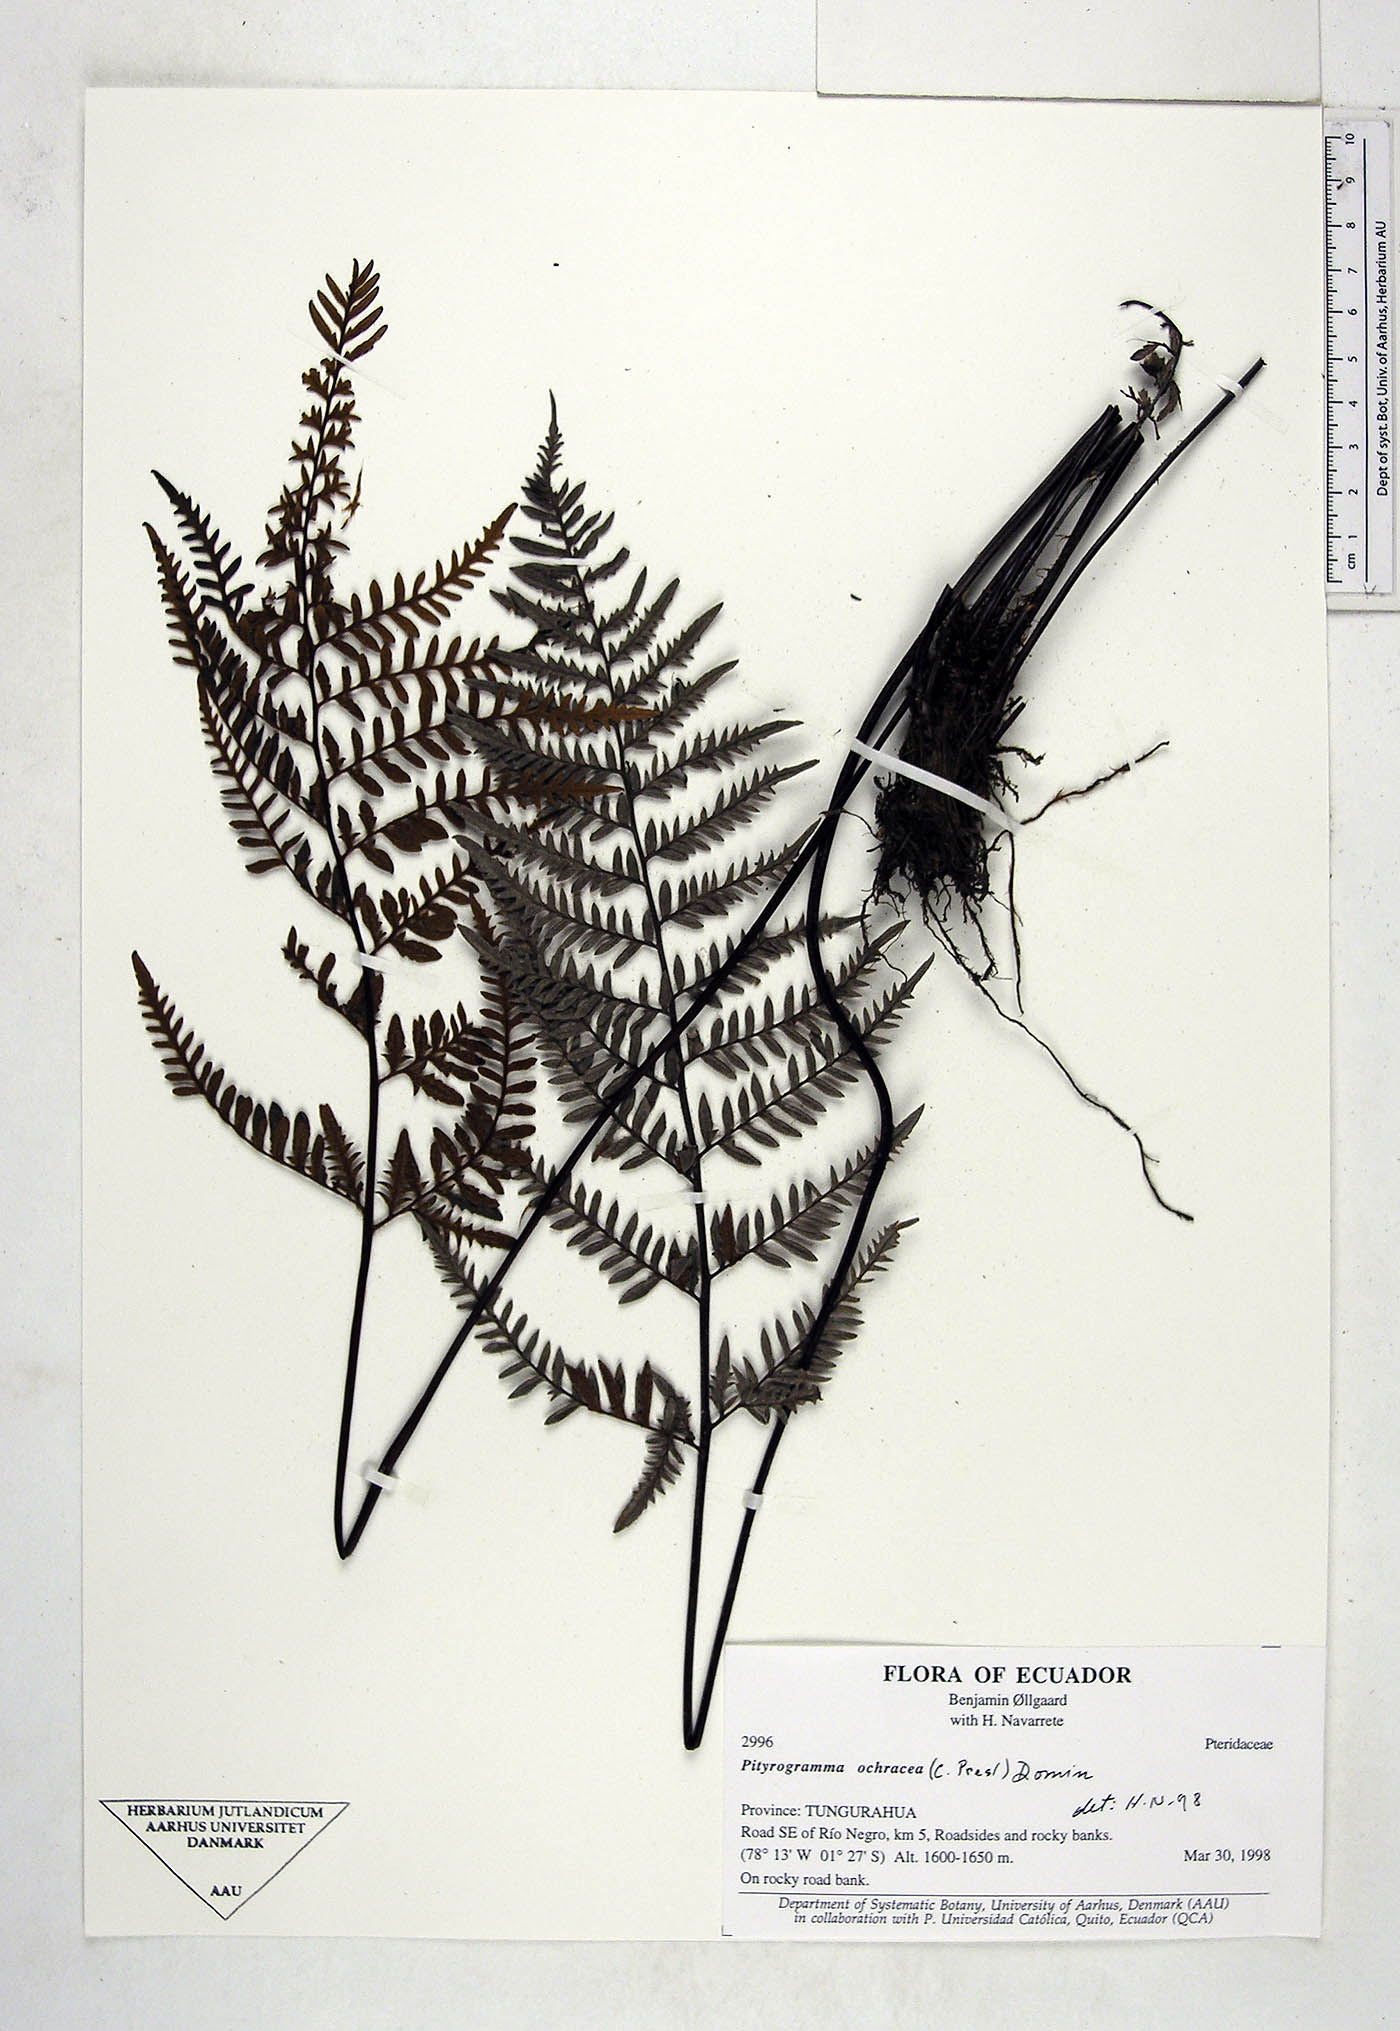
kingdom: Plantae
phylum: Tracheophyta
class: Polypodiopsida
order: Polypodiales
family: Pteridaceae
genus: Pityrogramma
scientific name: Pityrogramma ochracea
